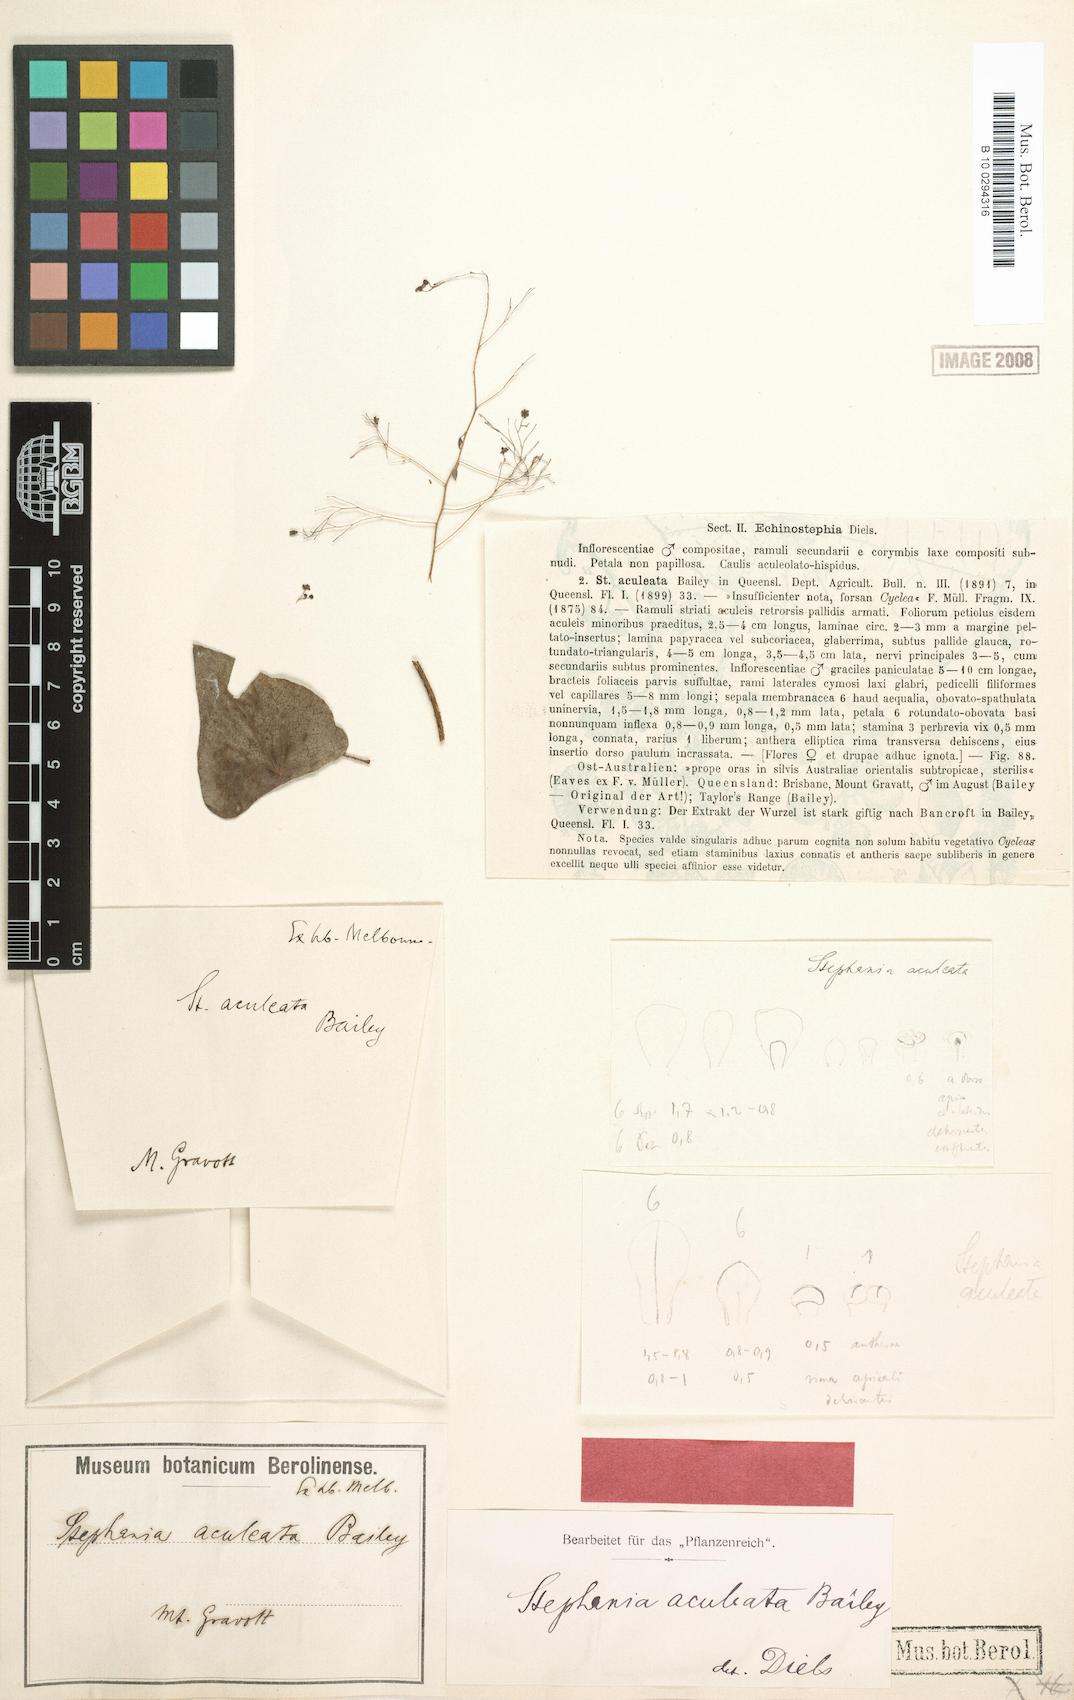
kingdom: Plantae
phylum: Tracheophyta
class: Magnoliopsida
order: Ranunculales
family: Menispermaceae
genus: Stephania
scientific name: Stephania aculeata
